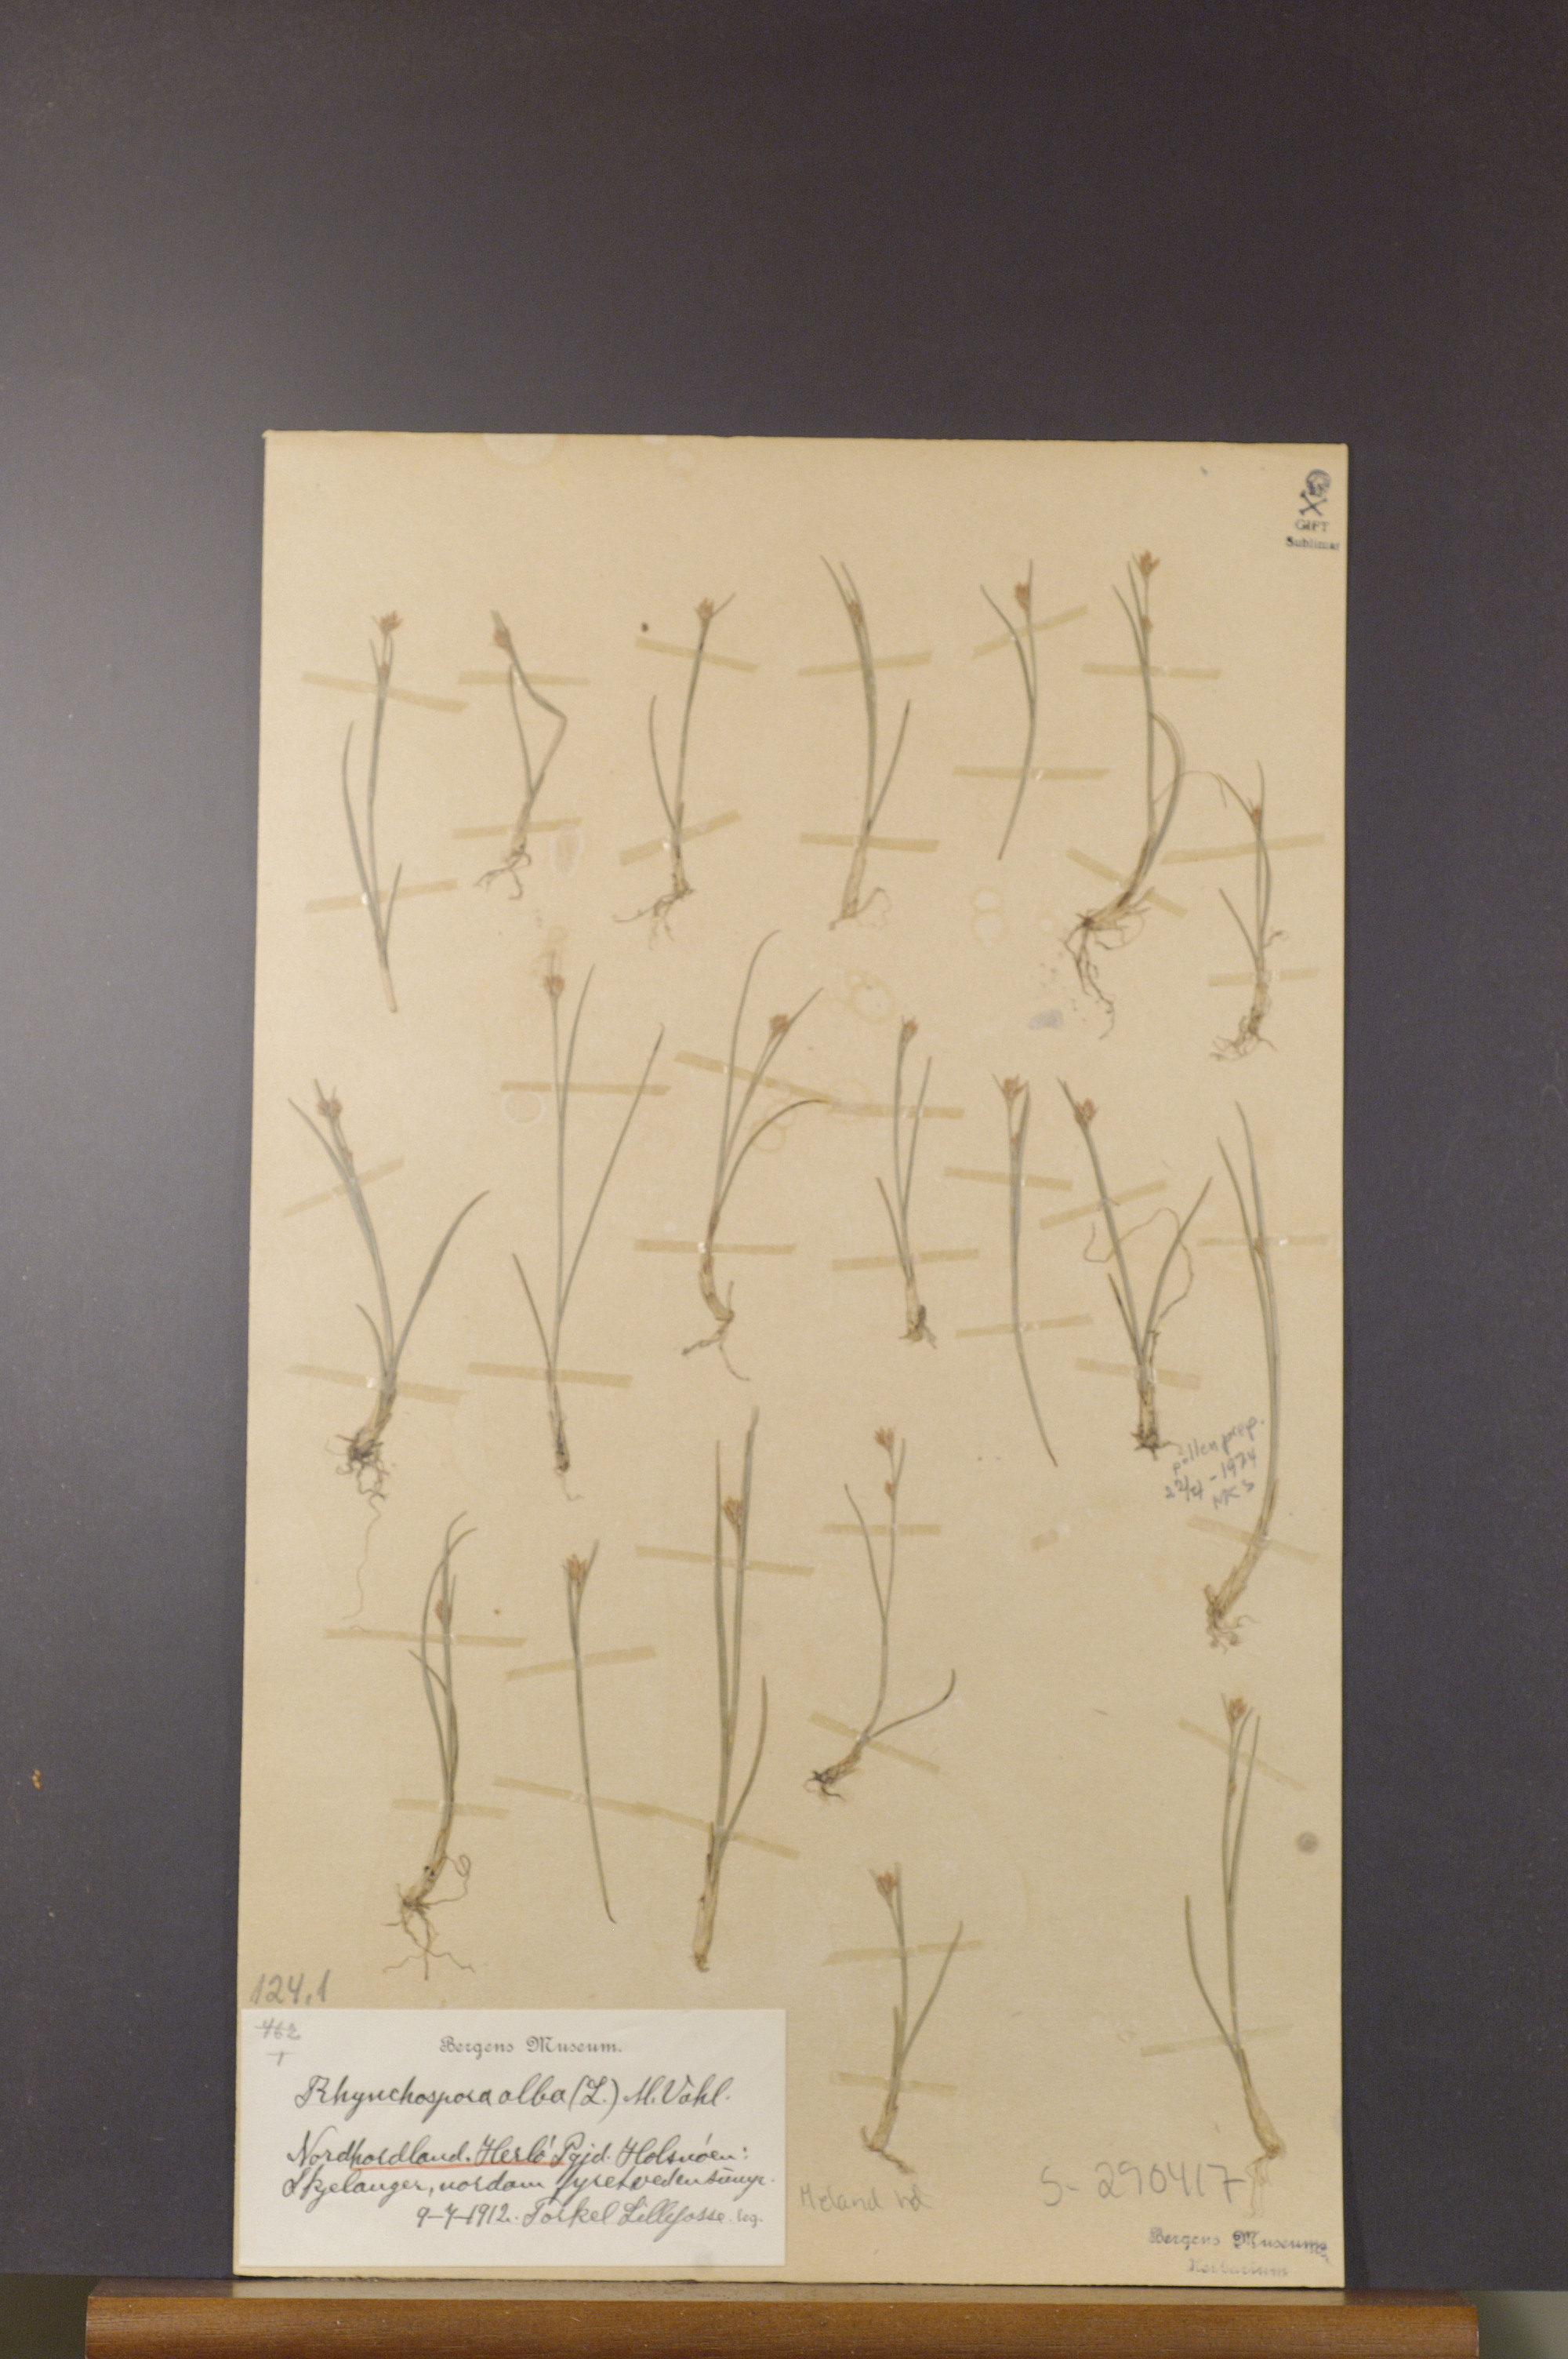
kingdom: Plantae
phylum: Tracheophyta
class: Liliopsida
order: Poales
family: Cyperaceae
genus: Rhynchospora
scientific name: Rhynchospora alba
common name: White beak-sedge
